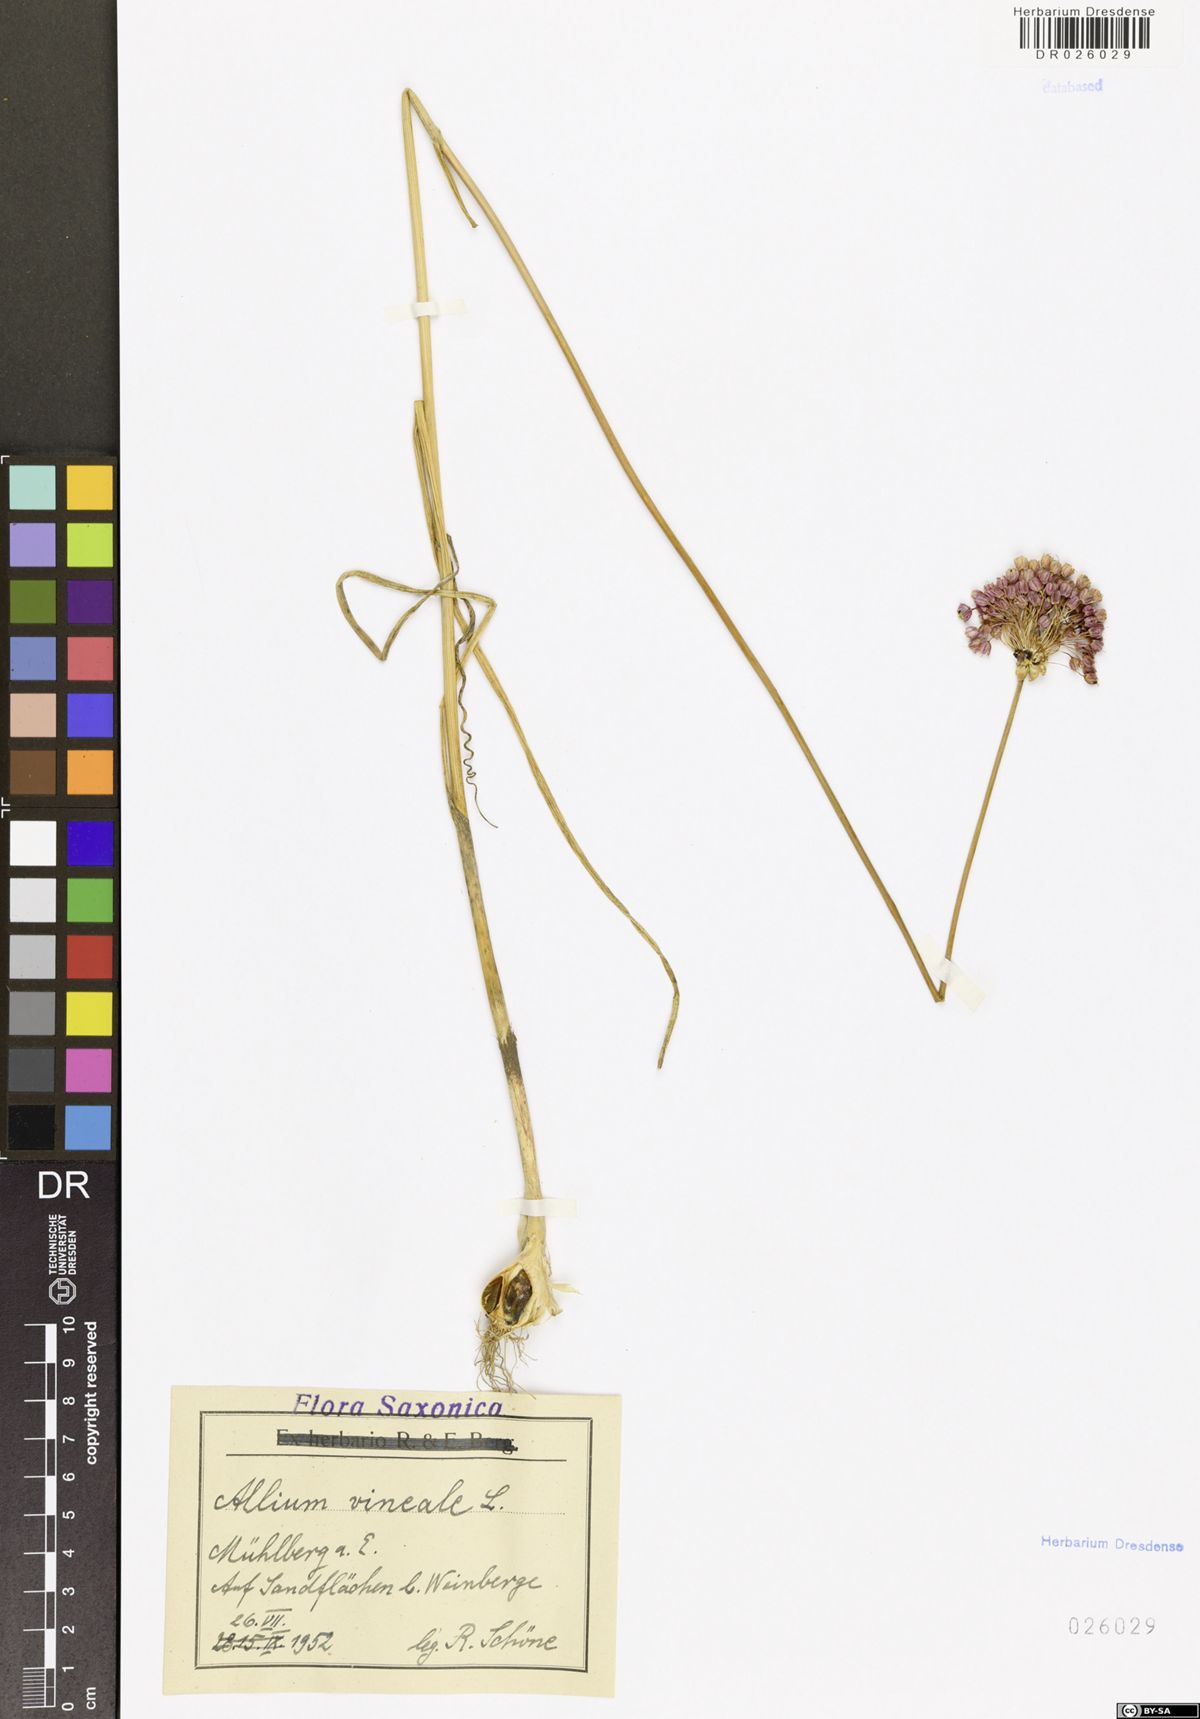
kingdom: Plantae
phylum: Tracheophyta
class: Liliopsida
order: Asparagales
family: Amaryllidaceae
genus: Allium
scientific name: Allium vineale
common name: Crow garlic
